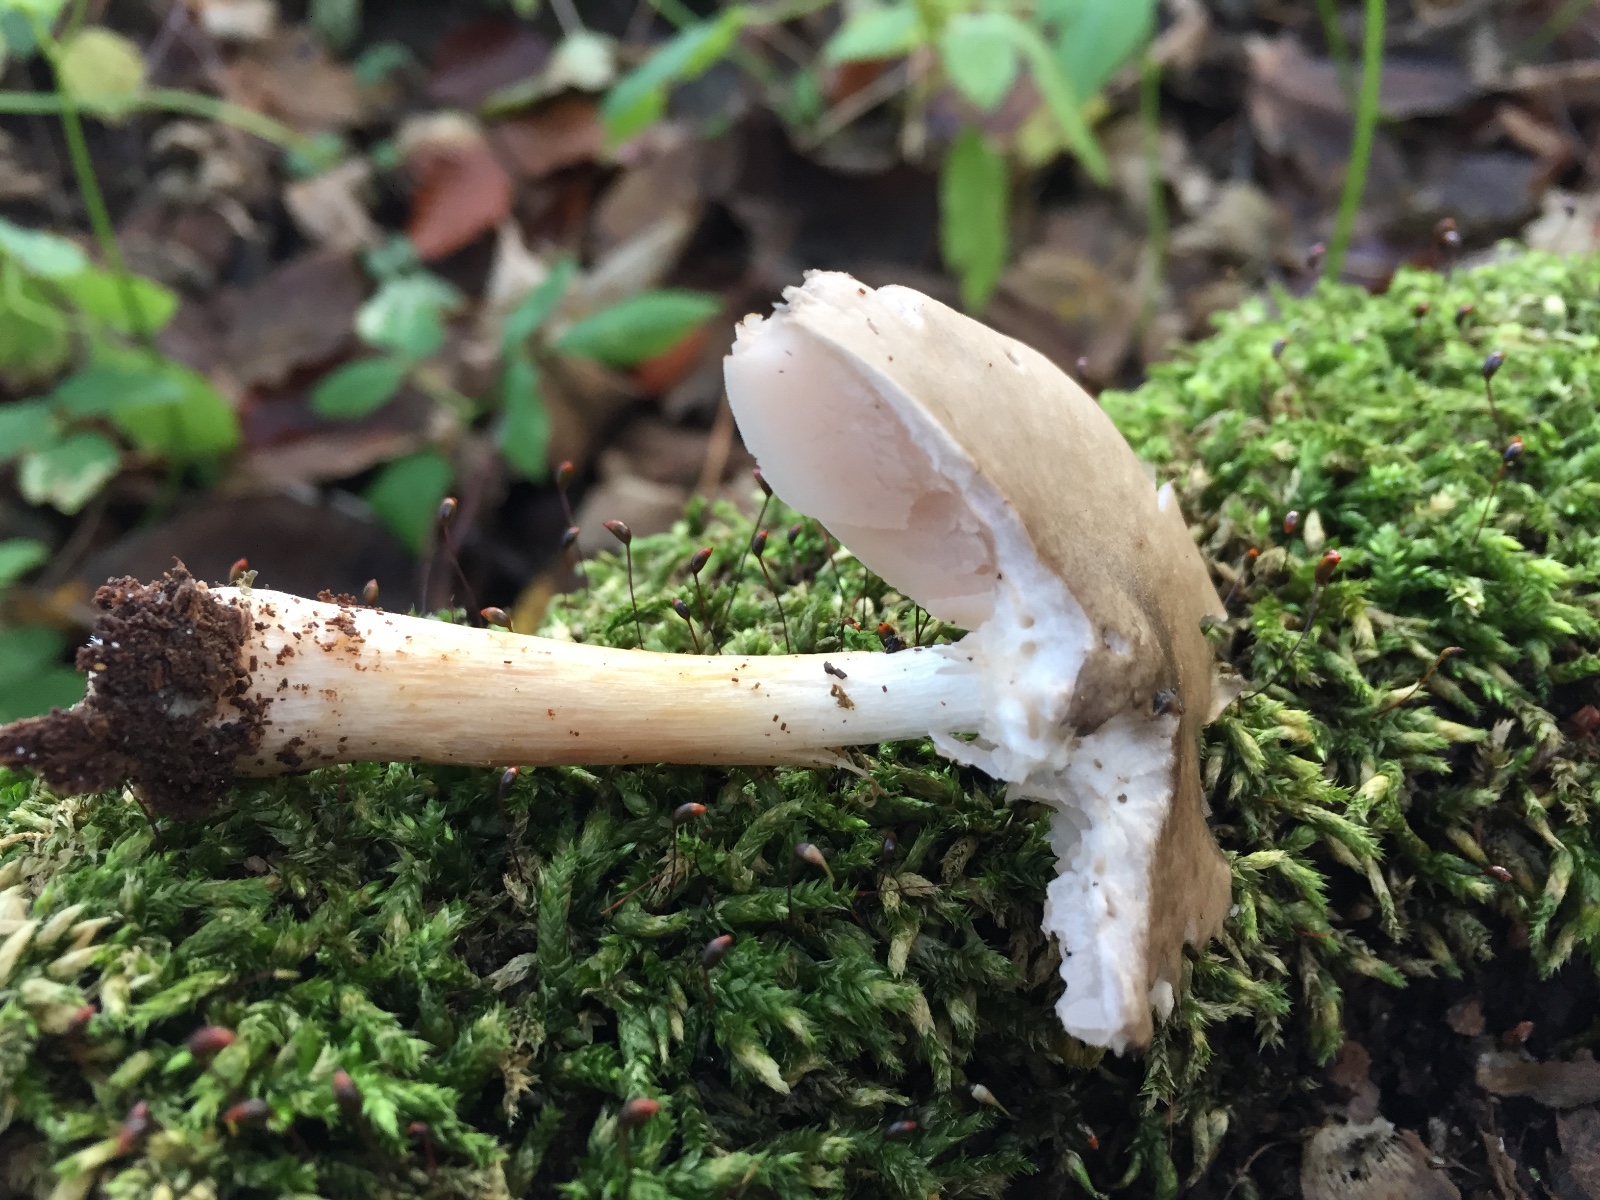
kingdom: Fungi
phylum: Basidiomycota
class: Agaricomycetes
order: Agaricales
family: Pluteaceae
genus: Pluteus
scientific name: Pluteus salicinus
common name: stiv skærmhat
